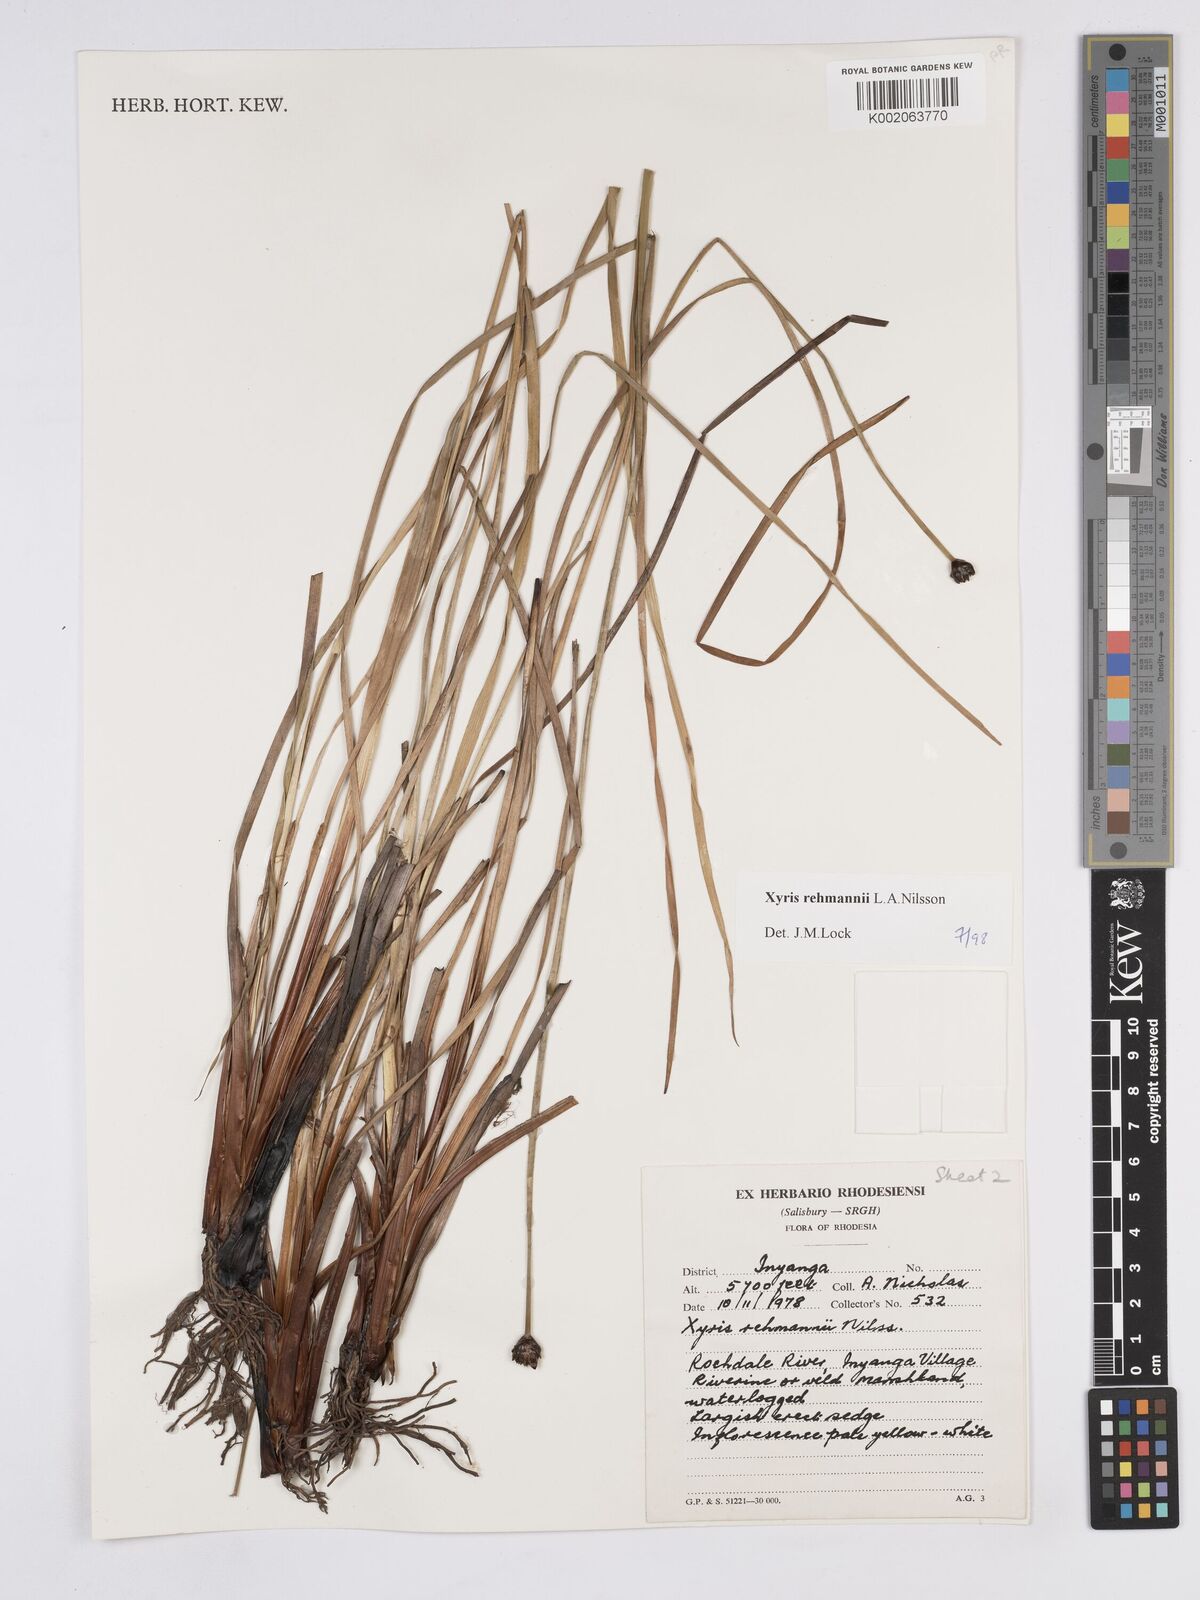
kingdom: Plantae
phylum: Tracheophyta
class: Liliopsida
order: Poales
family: Xyridaceae
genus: Xyris
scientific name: Xyris rehmannii
